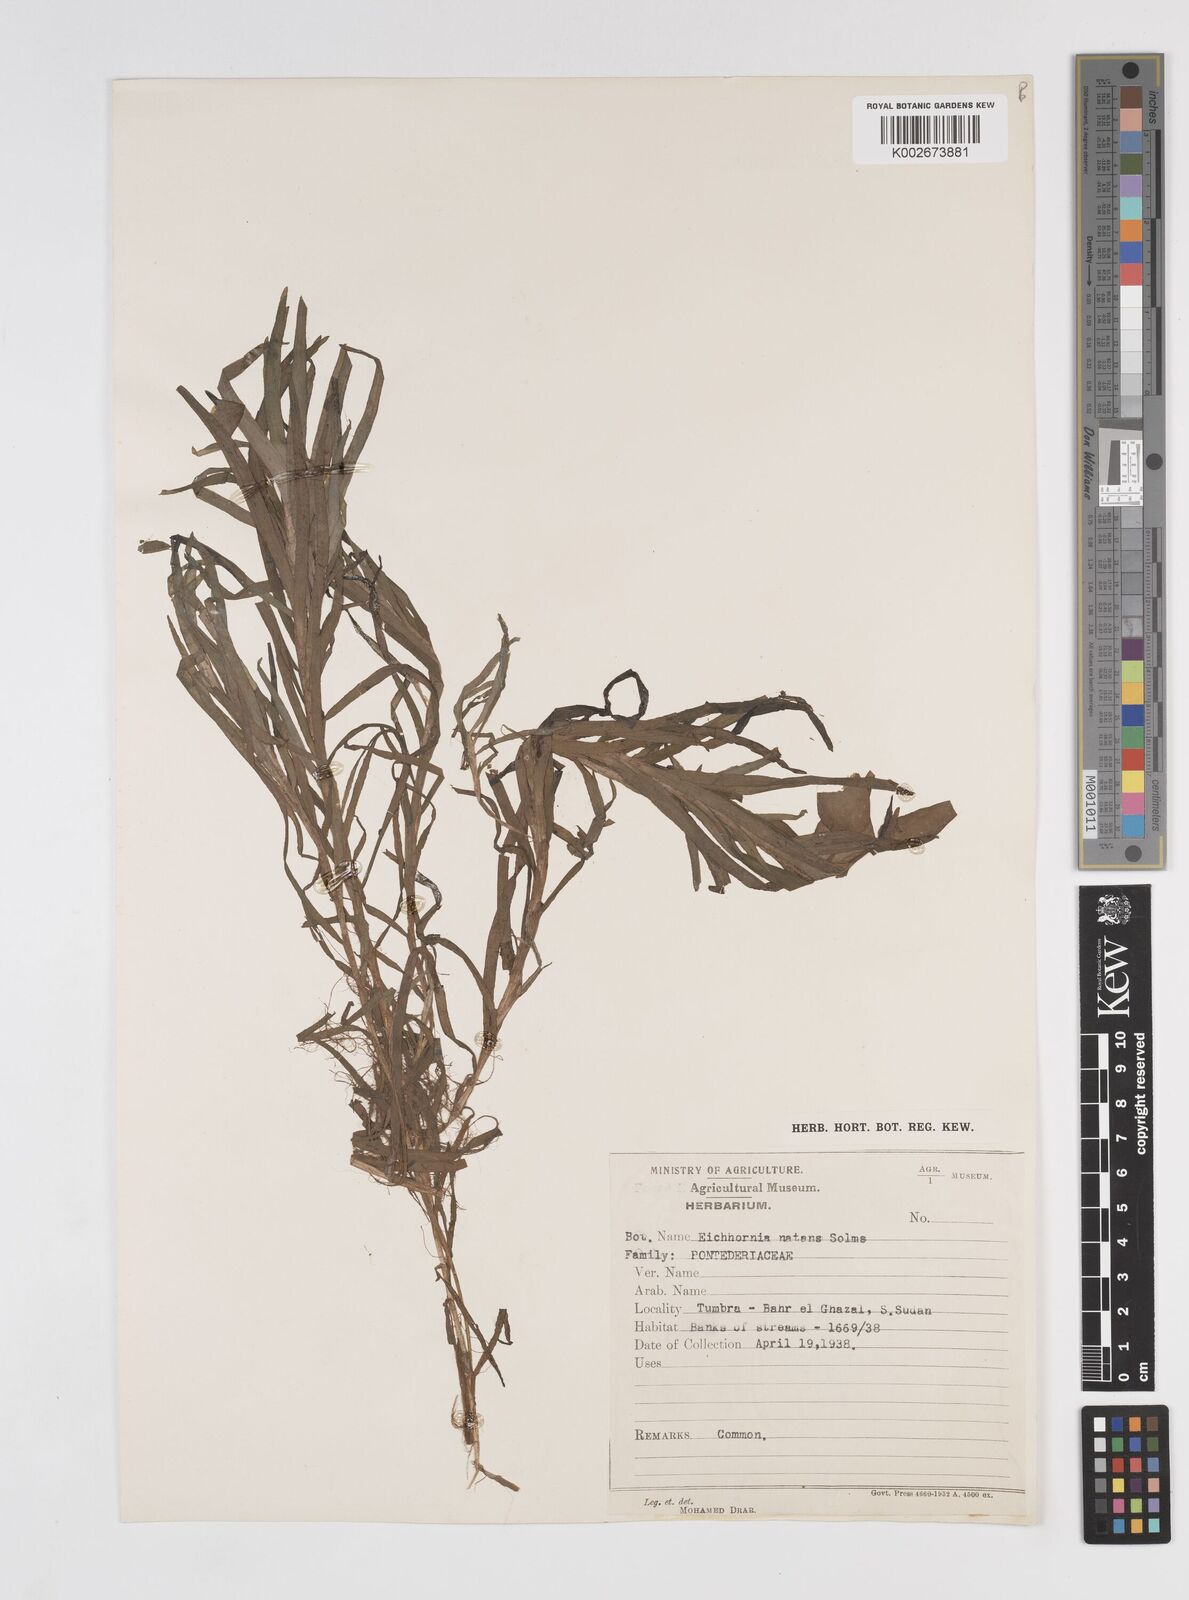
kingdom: Plantae
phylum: Tracheophyta
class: Liliopsida
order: Commelinales
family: Pontederiaceae
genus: Pontederia
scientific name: Pontederia diversifolia
